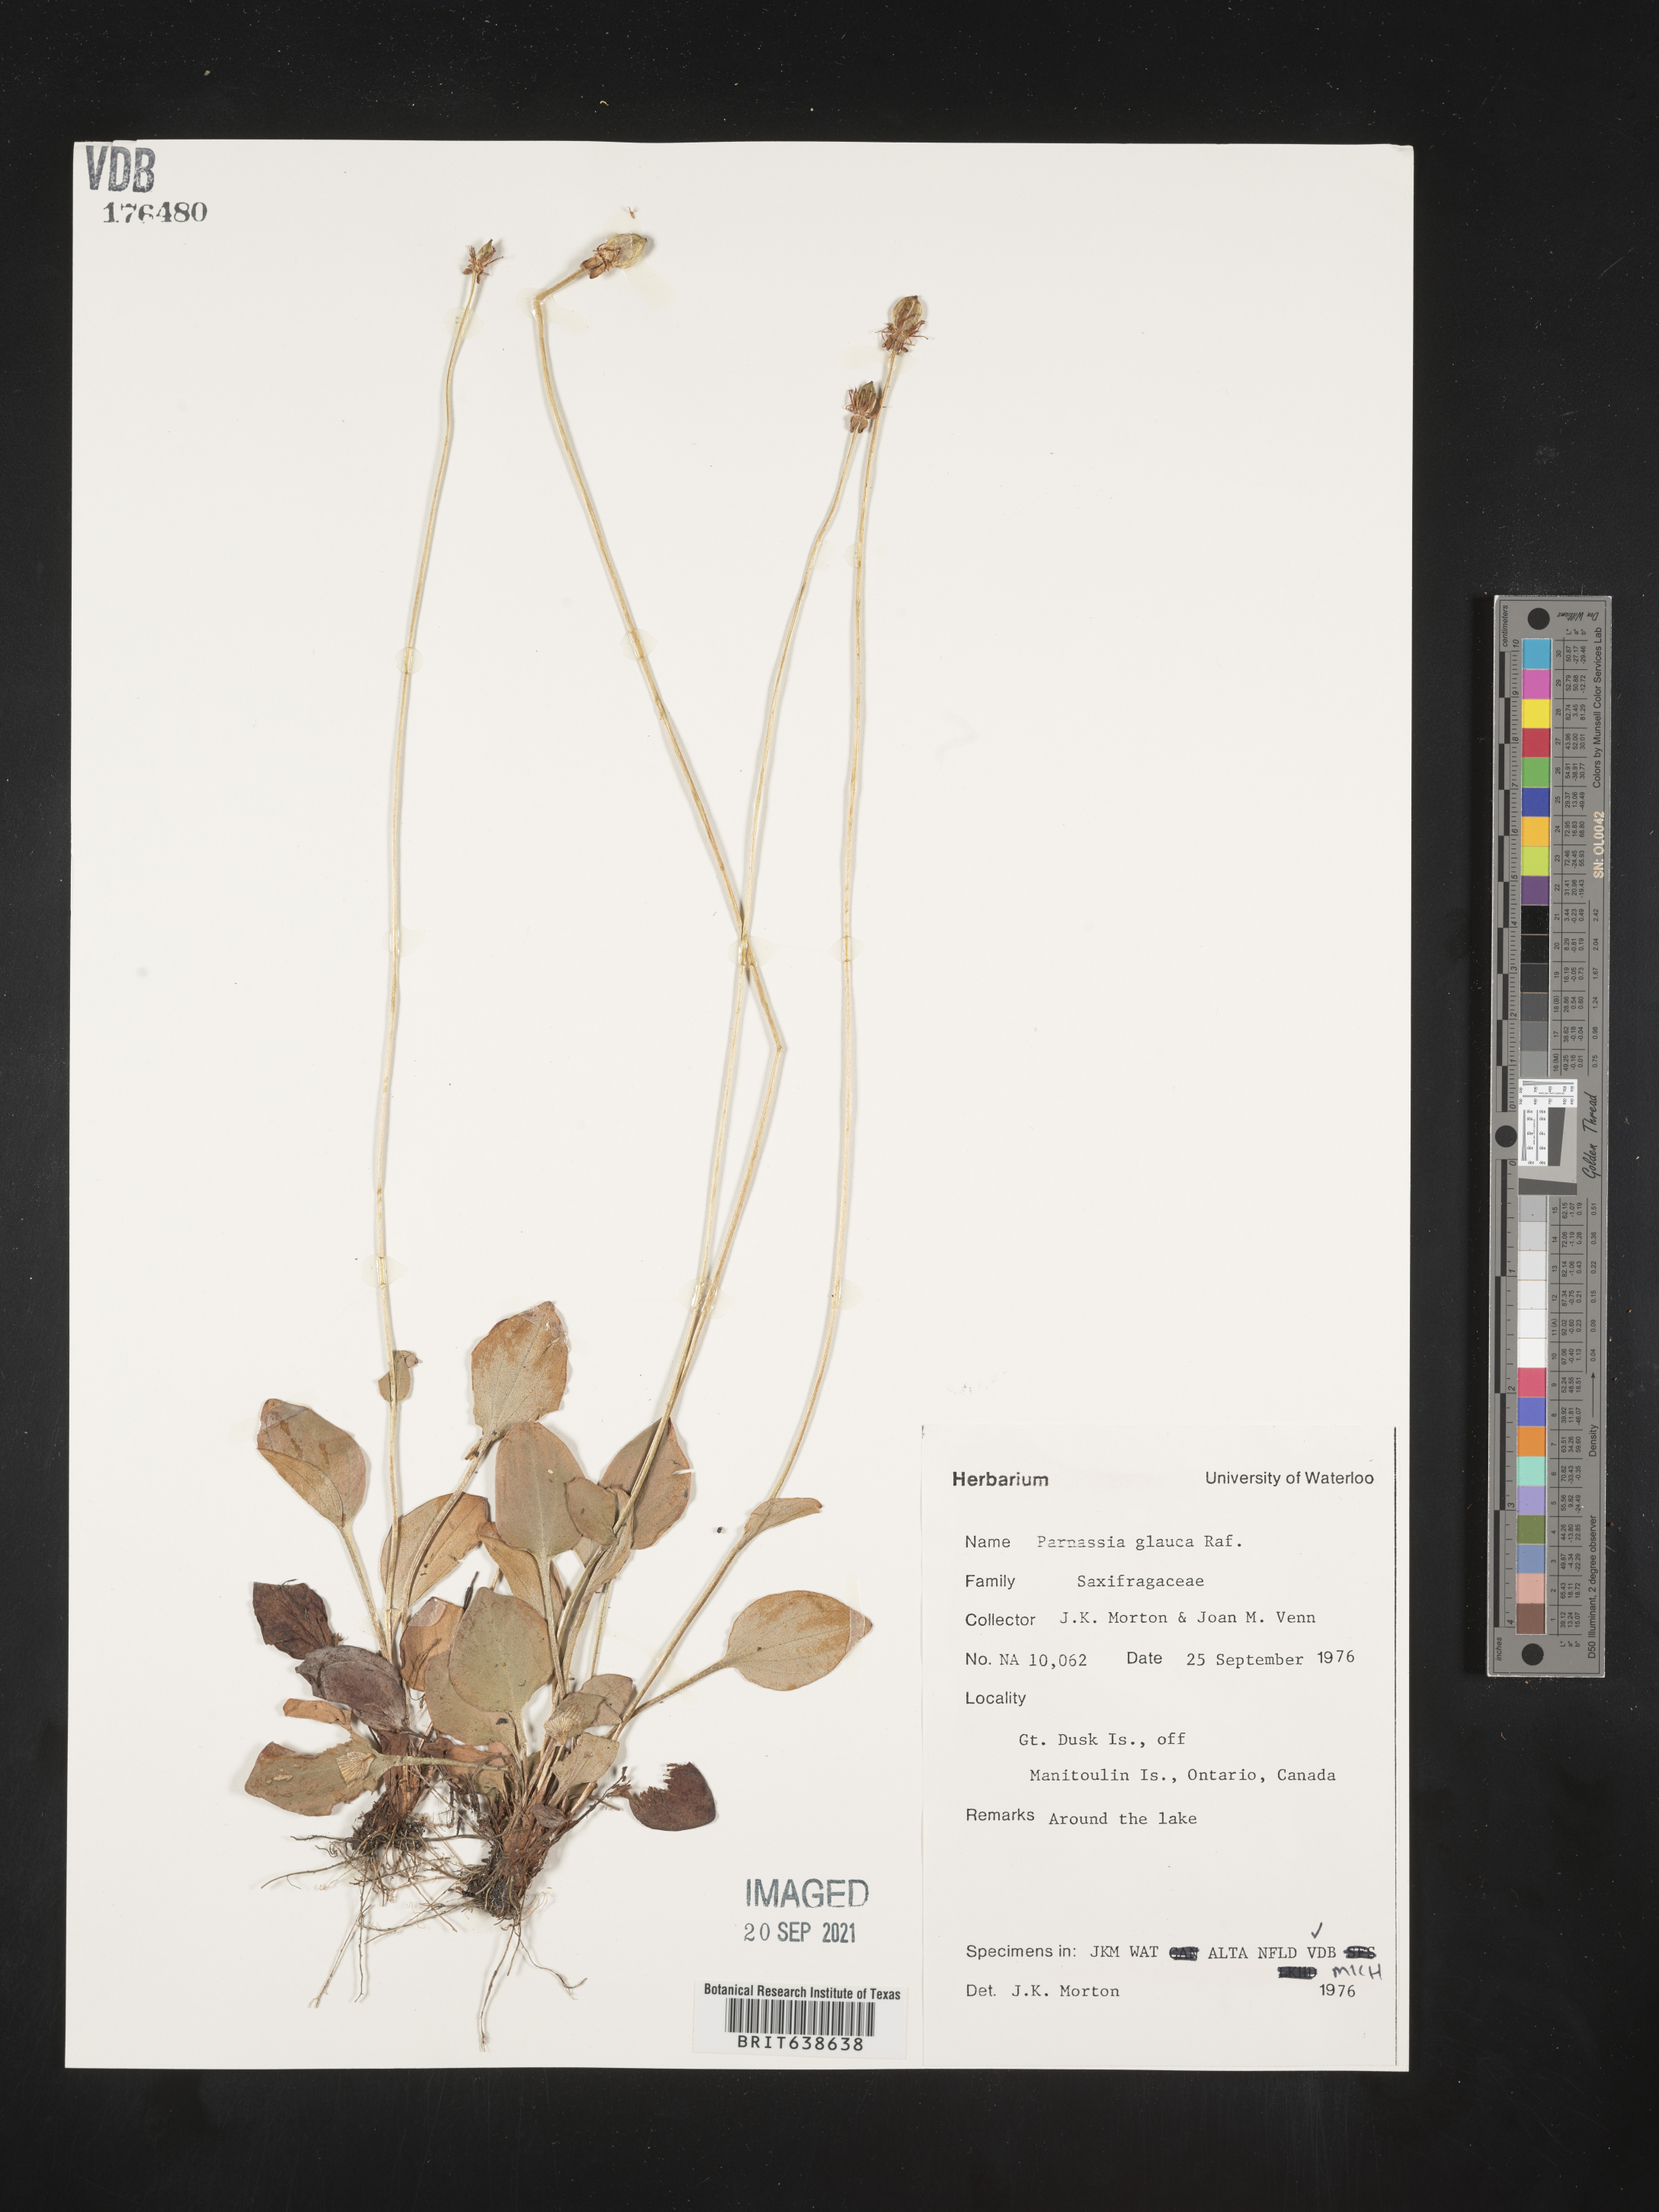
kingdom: Plantae
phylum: Tracheophyta
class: Magnoliopsida
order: Celastrales
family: Parnassiaceae
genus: Parnassia
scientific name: Parnassia glauca
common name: American grass-of-parnassus
